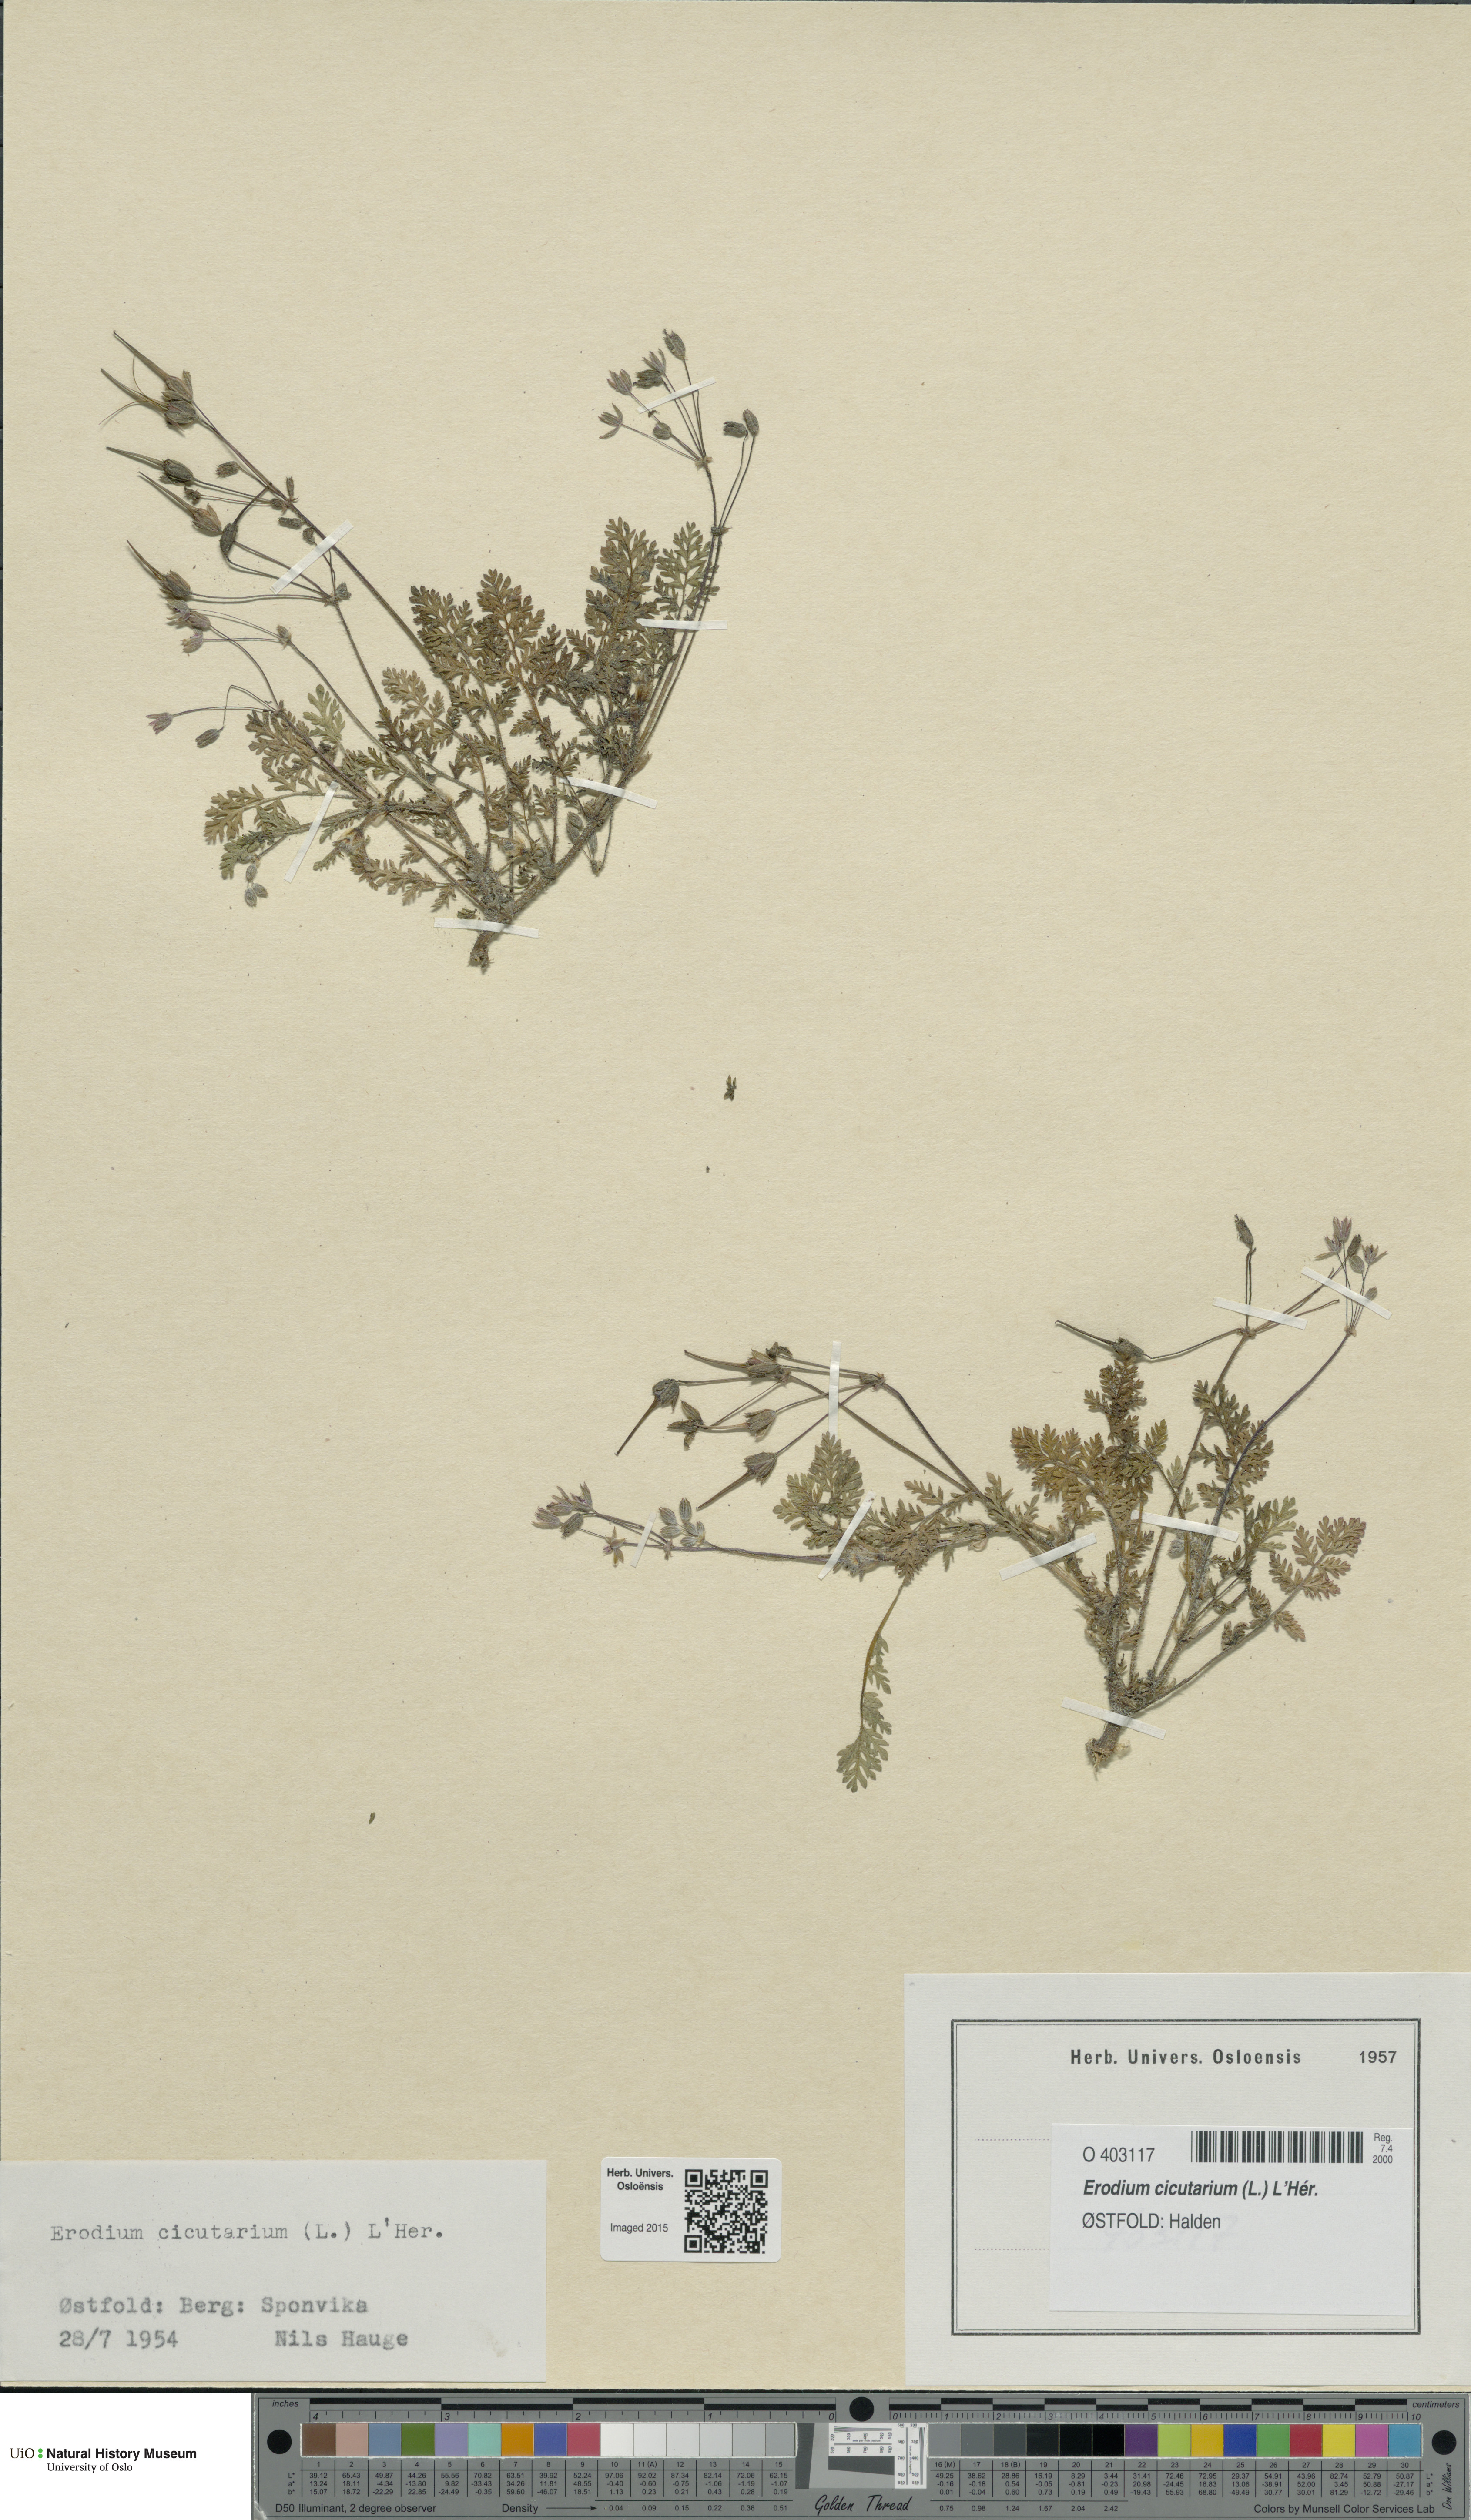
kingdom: Plantae
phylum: Tracheophyta
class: Magnoliopsida
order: Geraniales
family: Geraniaceae
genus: Erodium
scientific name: Erodium cicutarium
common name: Common stork's-bill
